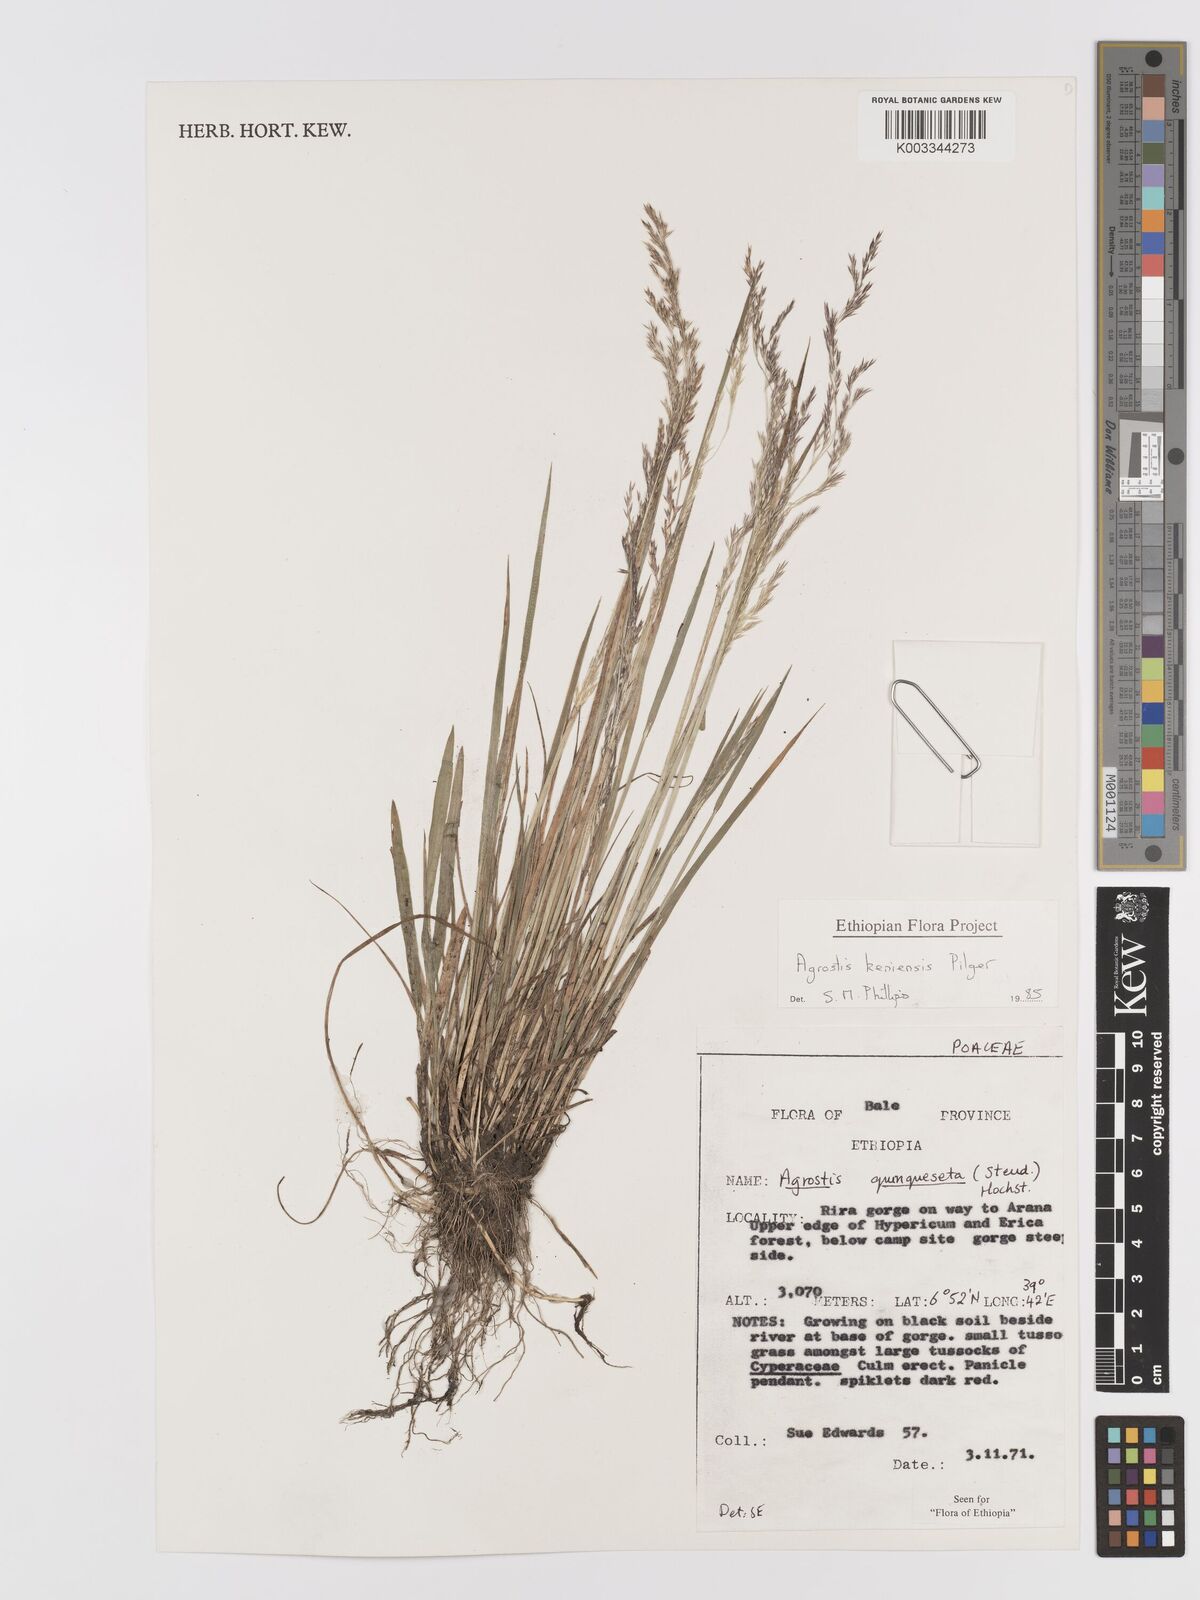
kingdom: Plantae
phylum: Tracheophyta
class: Liliopsida
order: Poales
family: Poaceae
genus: Agrostis
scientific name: Agrostis keniensis
